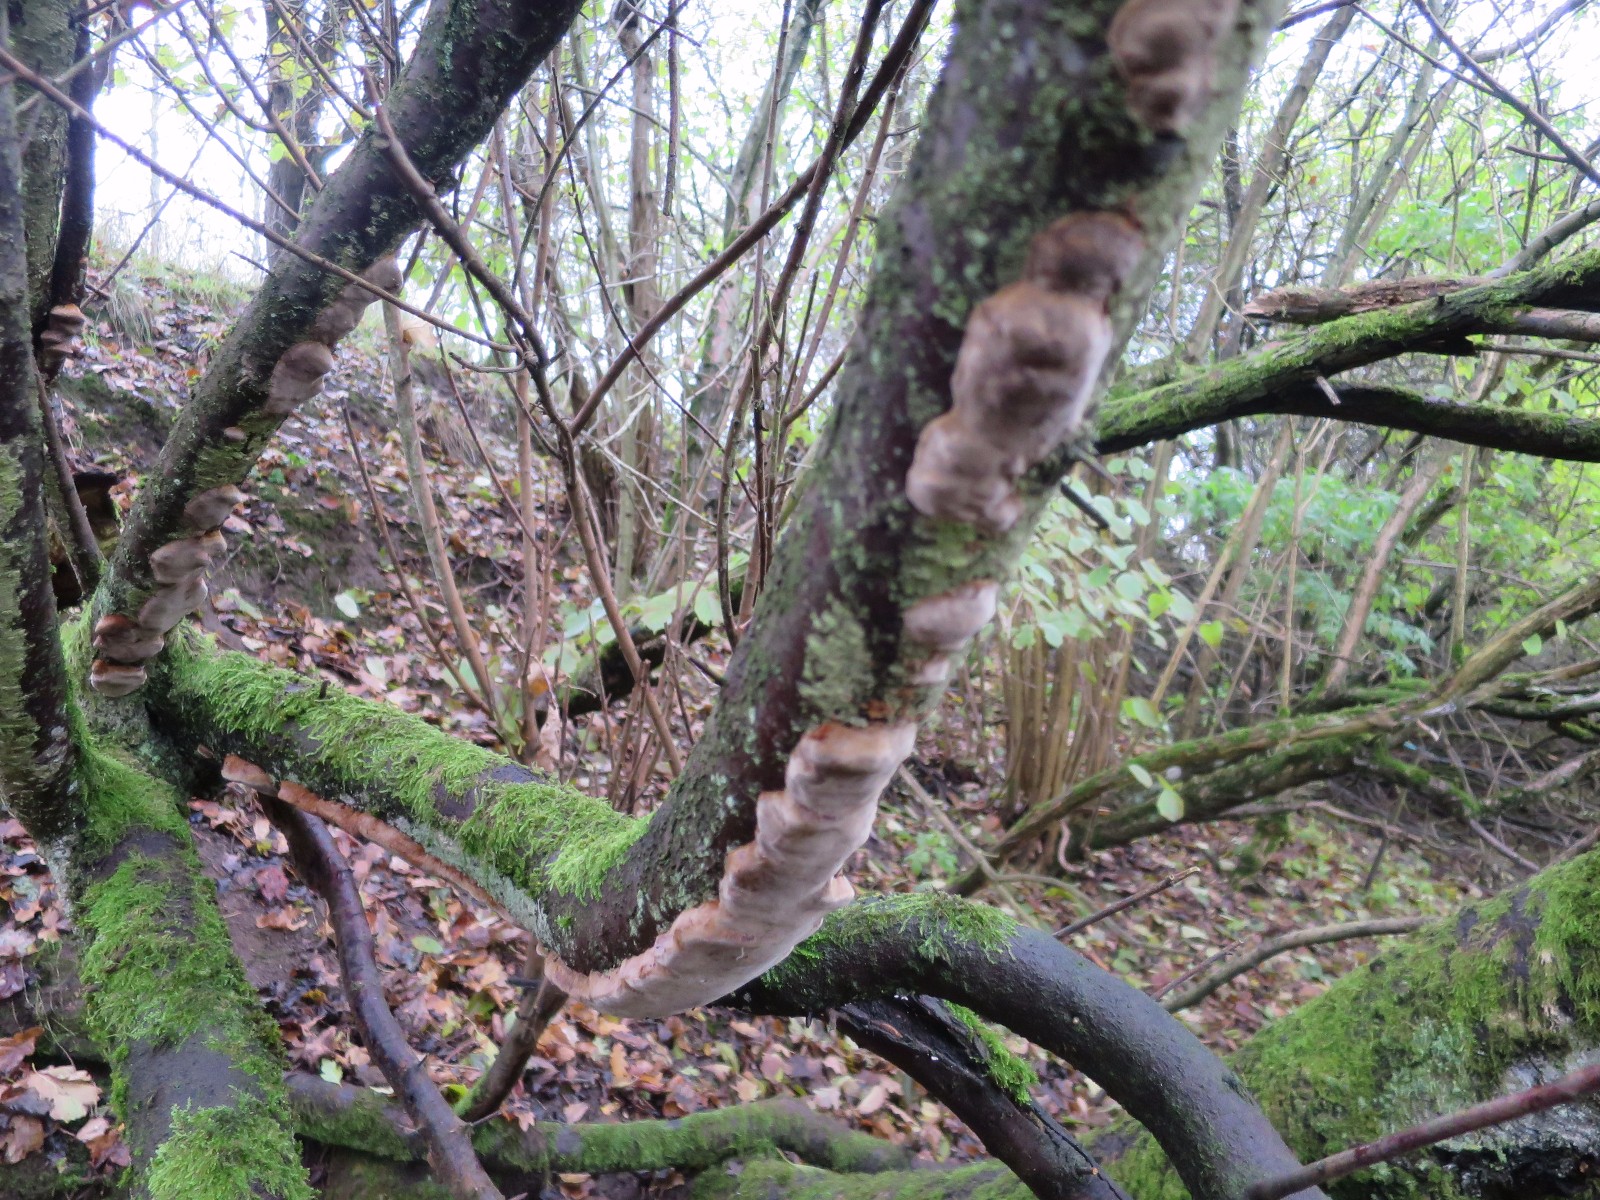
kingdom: Fungi
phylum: Basidiomycota
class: Agaricomycetes
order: Hymenochaetales
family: Hymenochaetaceae
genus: Phellinus
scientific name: Phellinus pomaceus
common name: blomme-ildporesvamp
